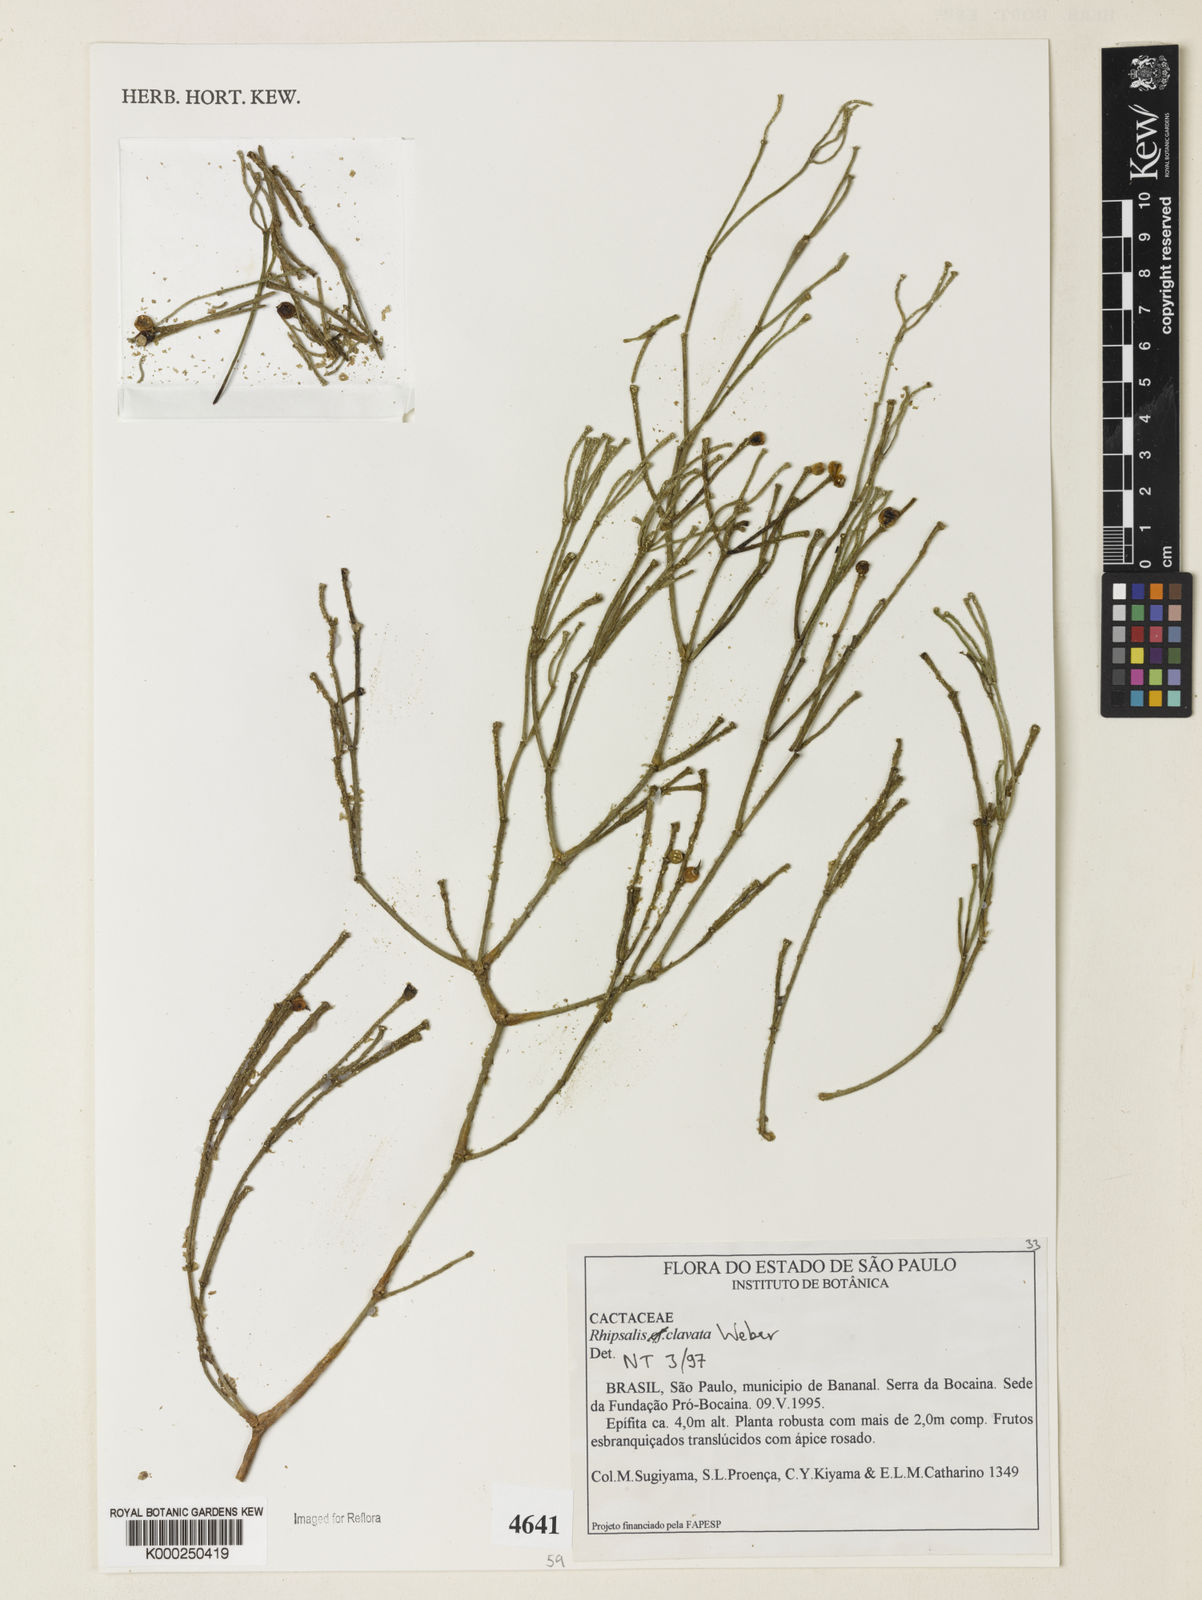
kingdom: Plantae
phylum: Tracheophyta
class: Magnoliopsida
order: Caryophyllales
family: Cactaceae
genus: Rhipsalis
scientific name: Rhipsalis clavata
